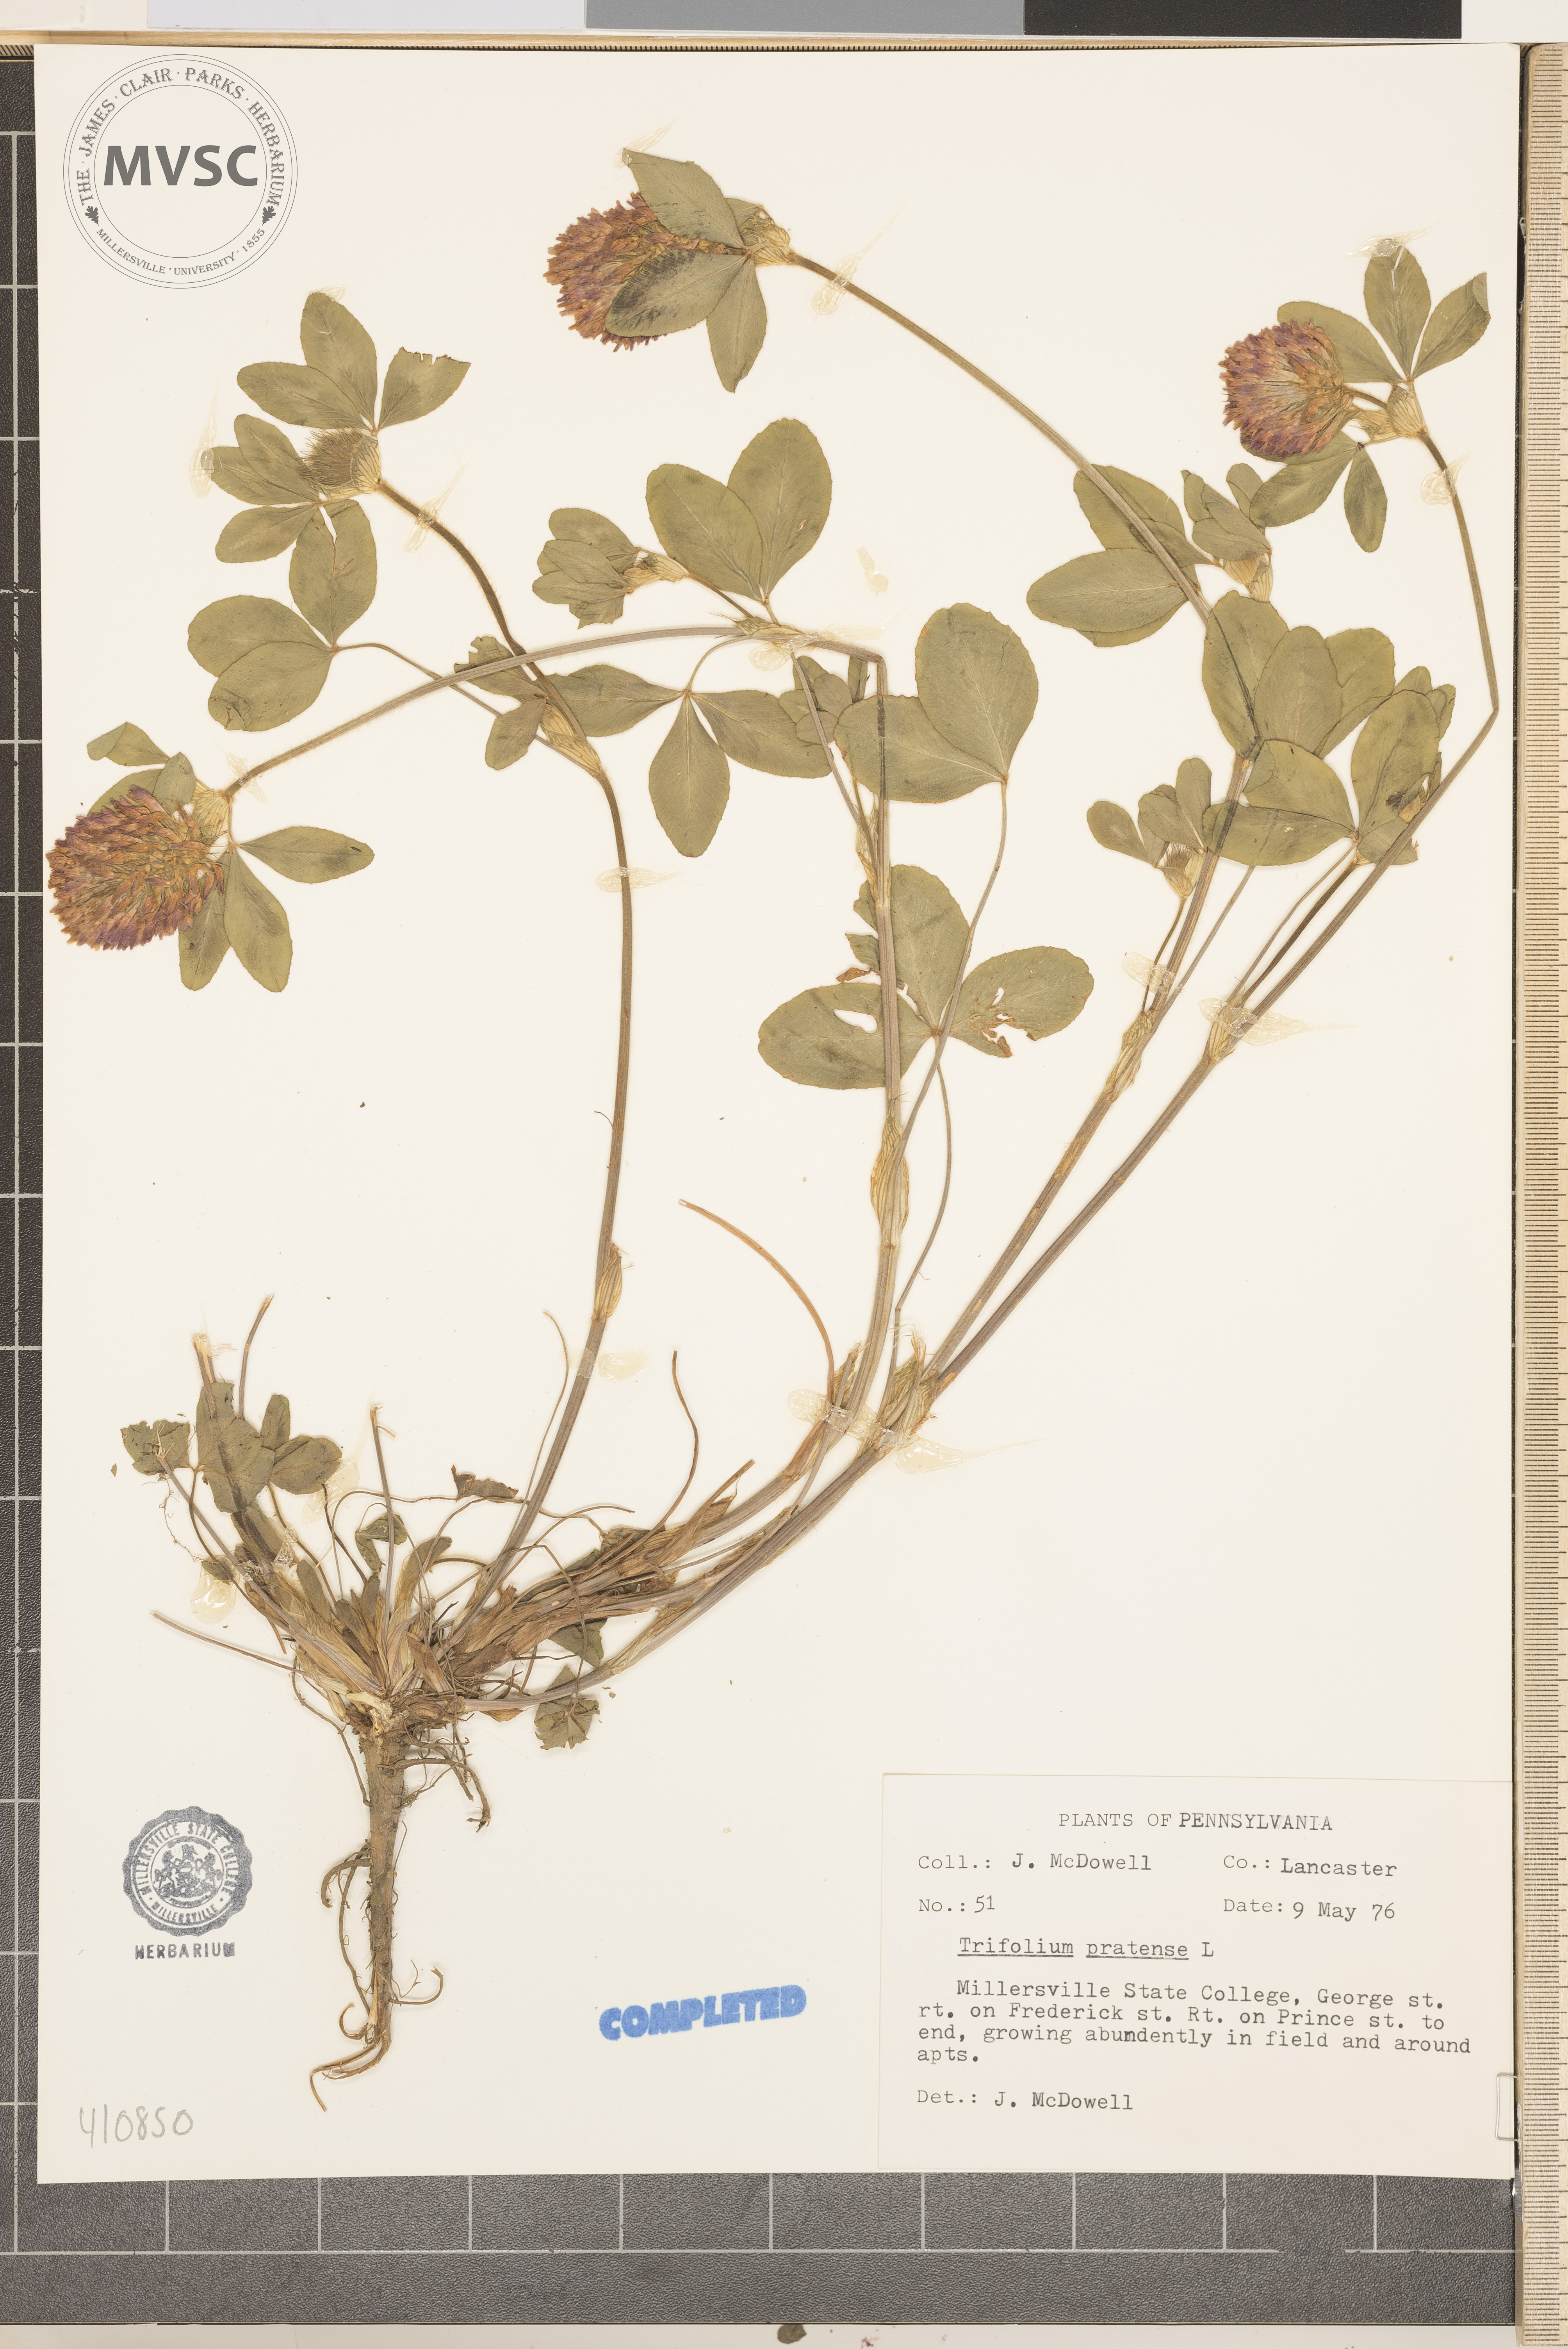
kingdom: Plantae
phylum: Tracheophyta
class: Magnoliopsida
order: Fabales
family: Fabaceae
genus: Trifolium
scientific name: Trifolium pratense
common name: Red clover
